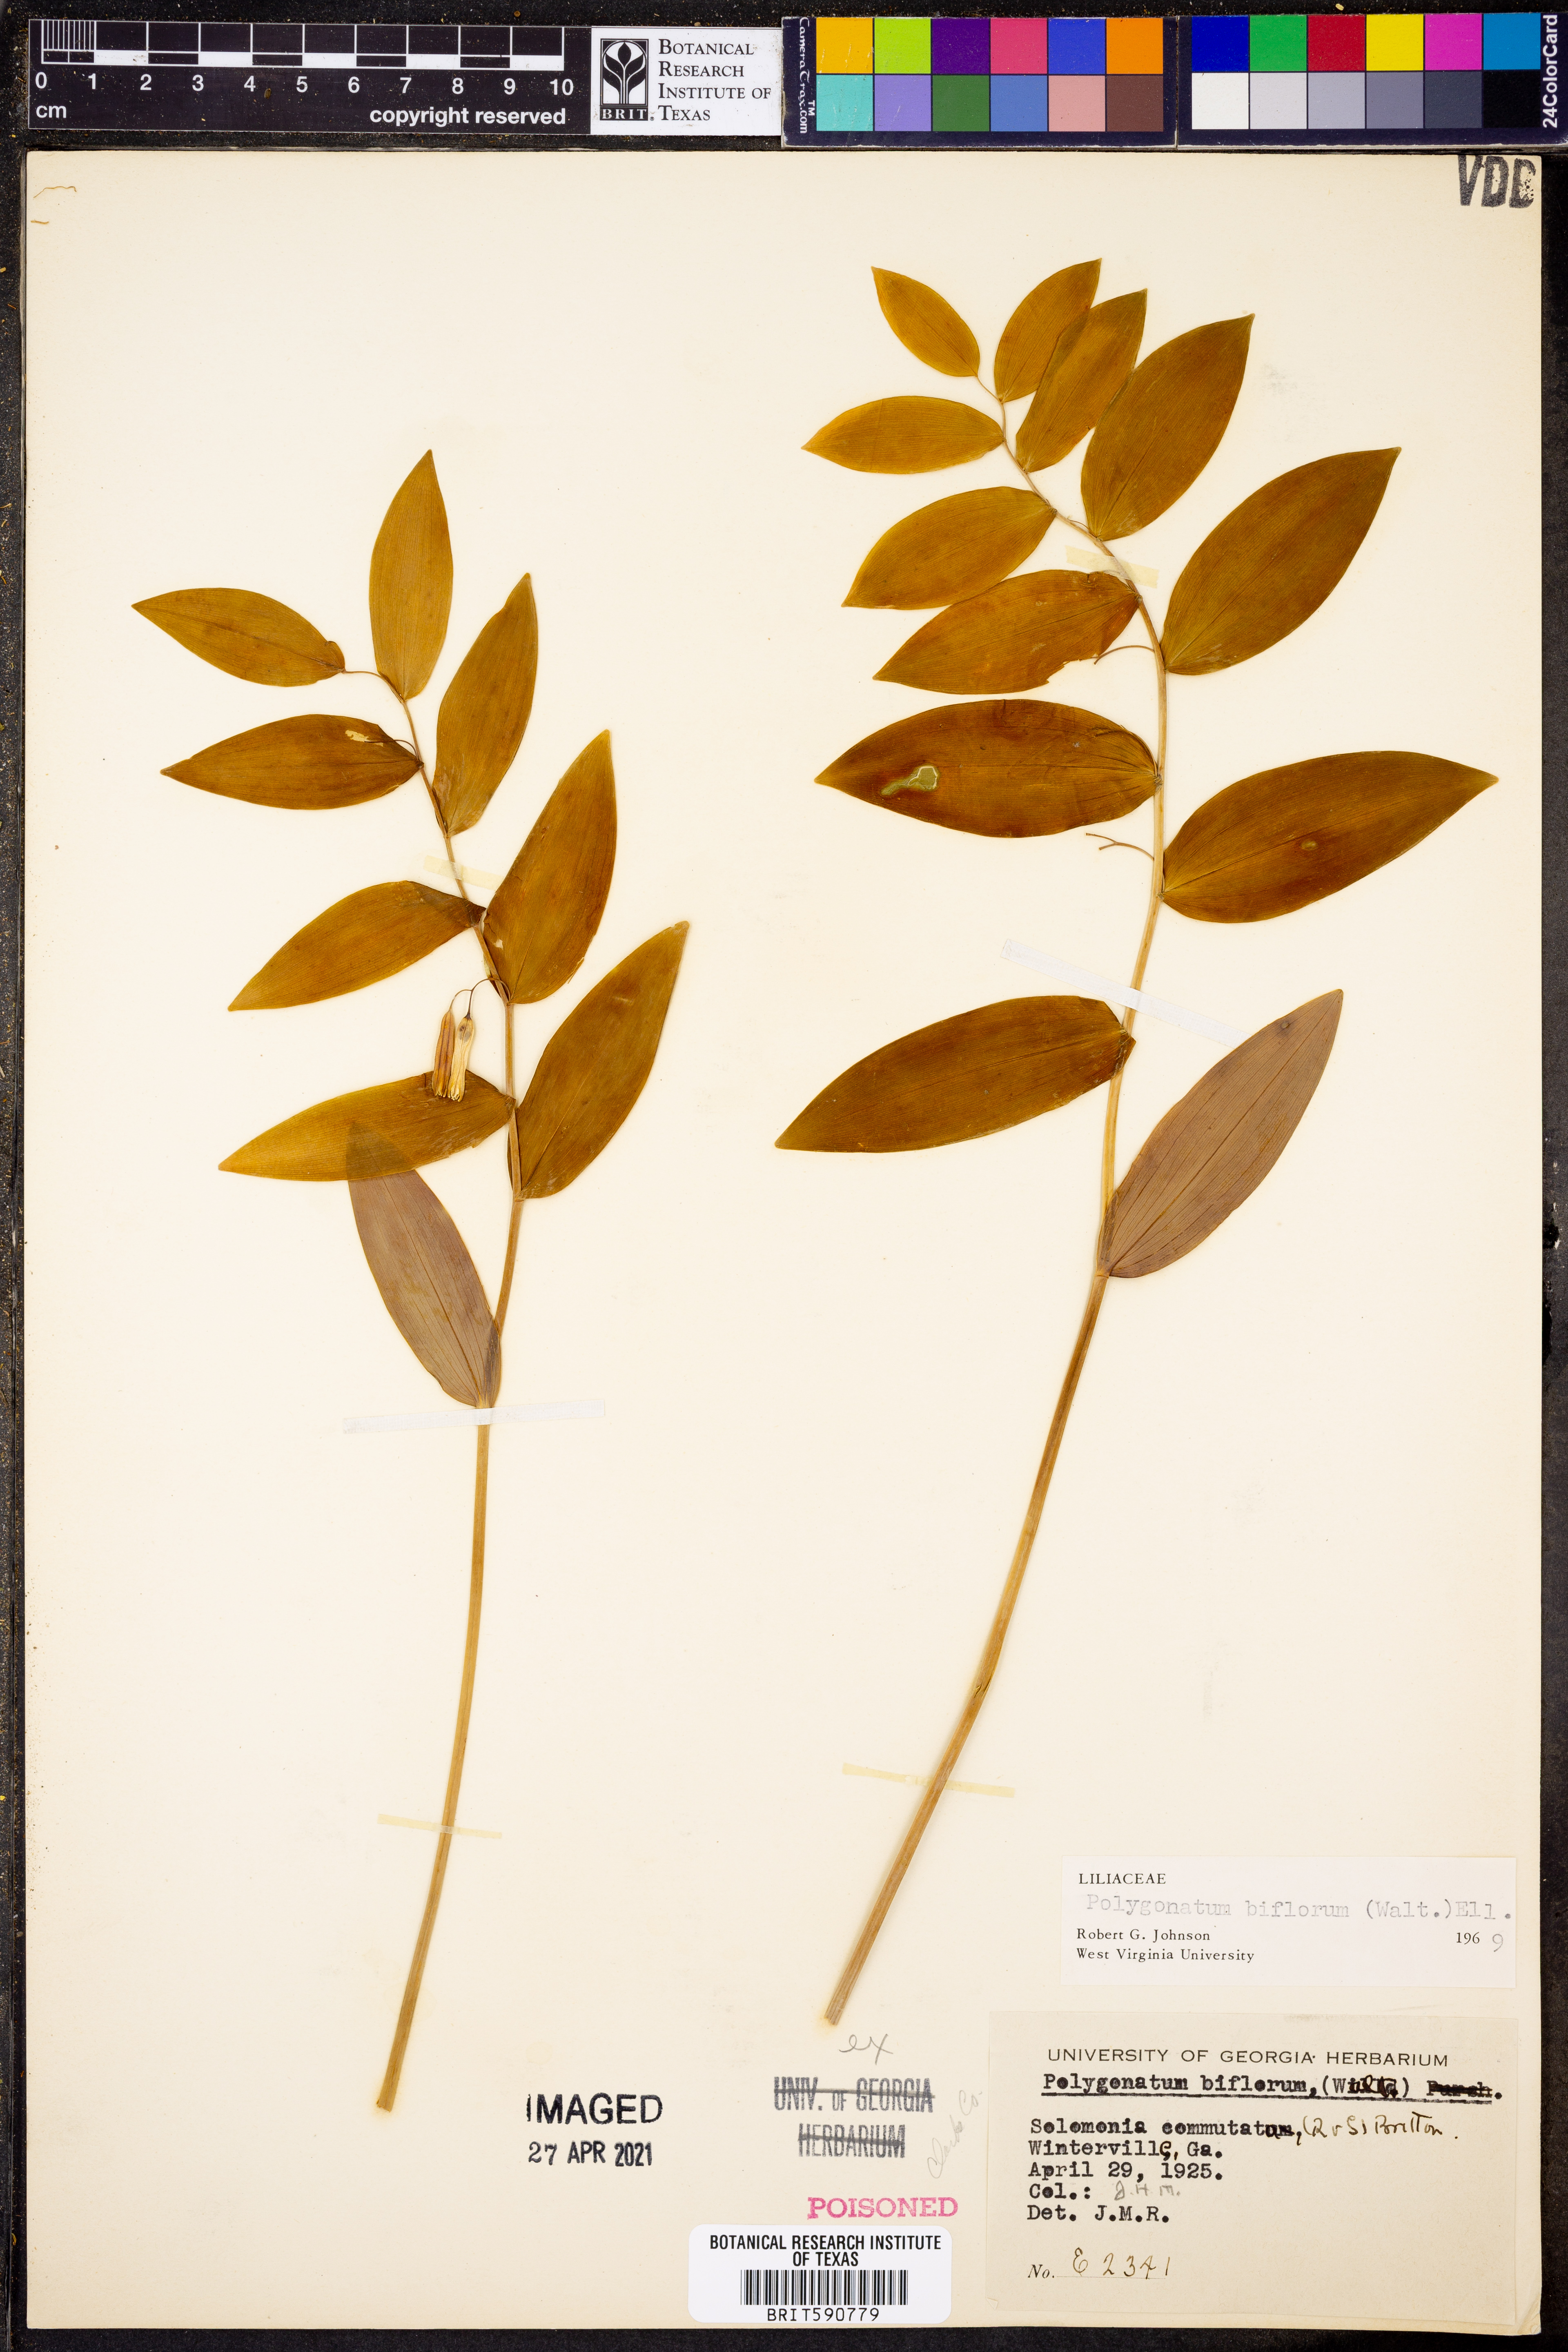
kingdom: Plantae
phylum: Tracheophyta
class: Liliopsida
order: Asparagales
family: Asparagaceae
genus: Polygonatum
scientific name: Polygonatum biflorum
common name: American solomon's-seal
